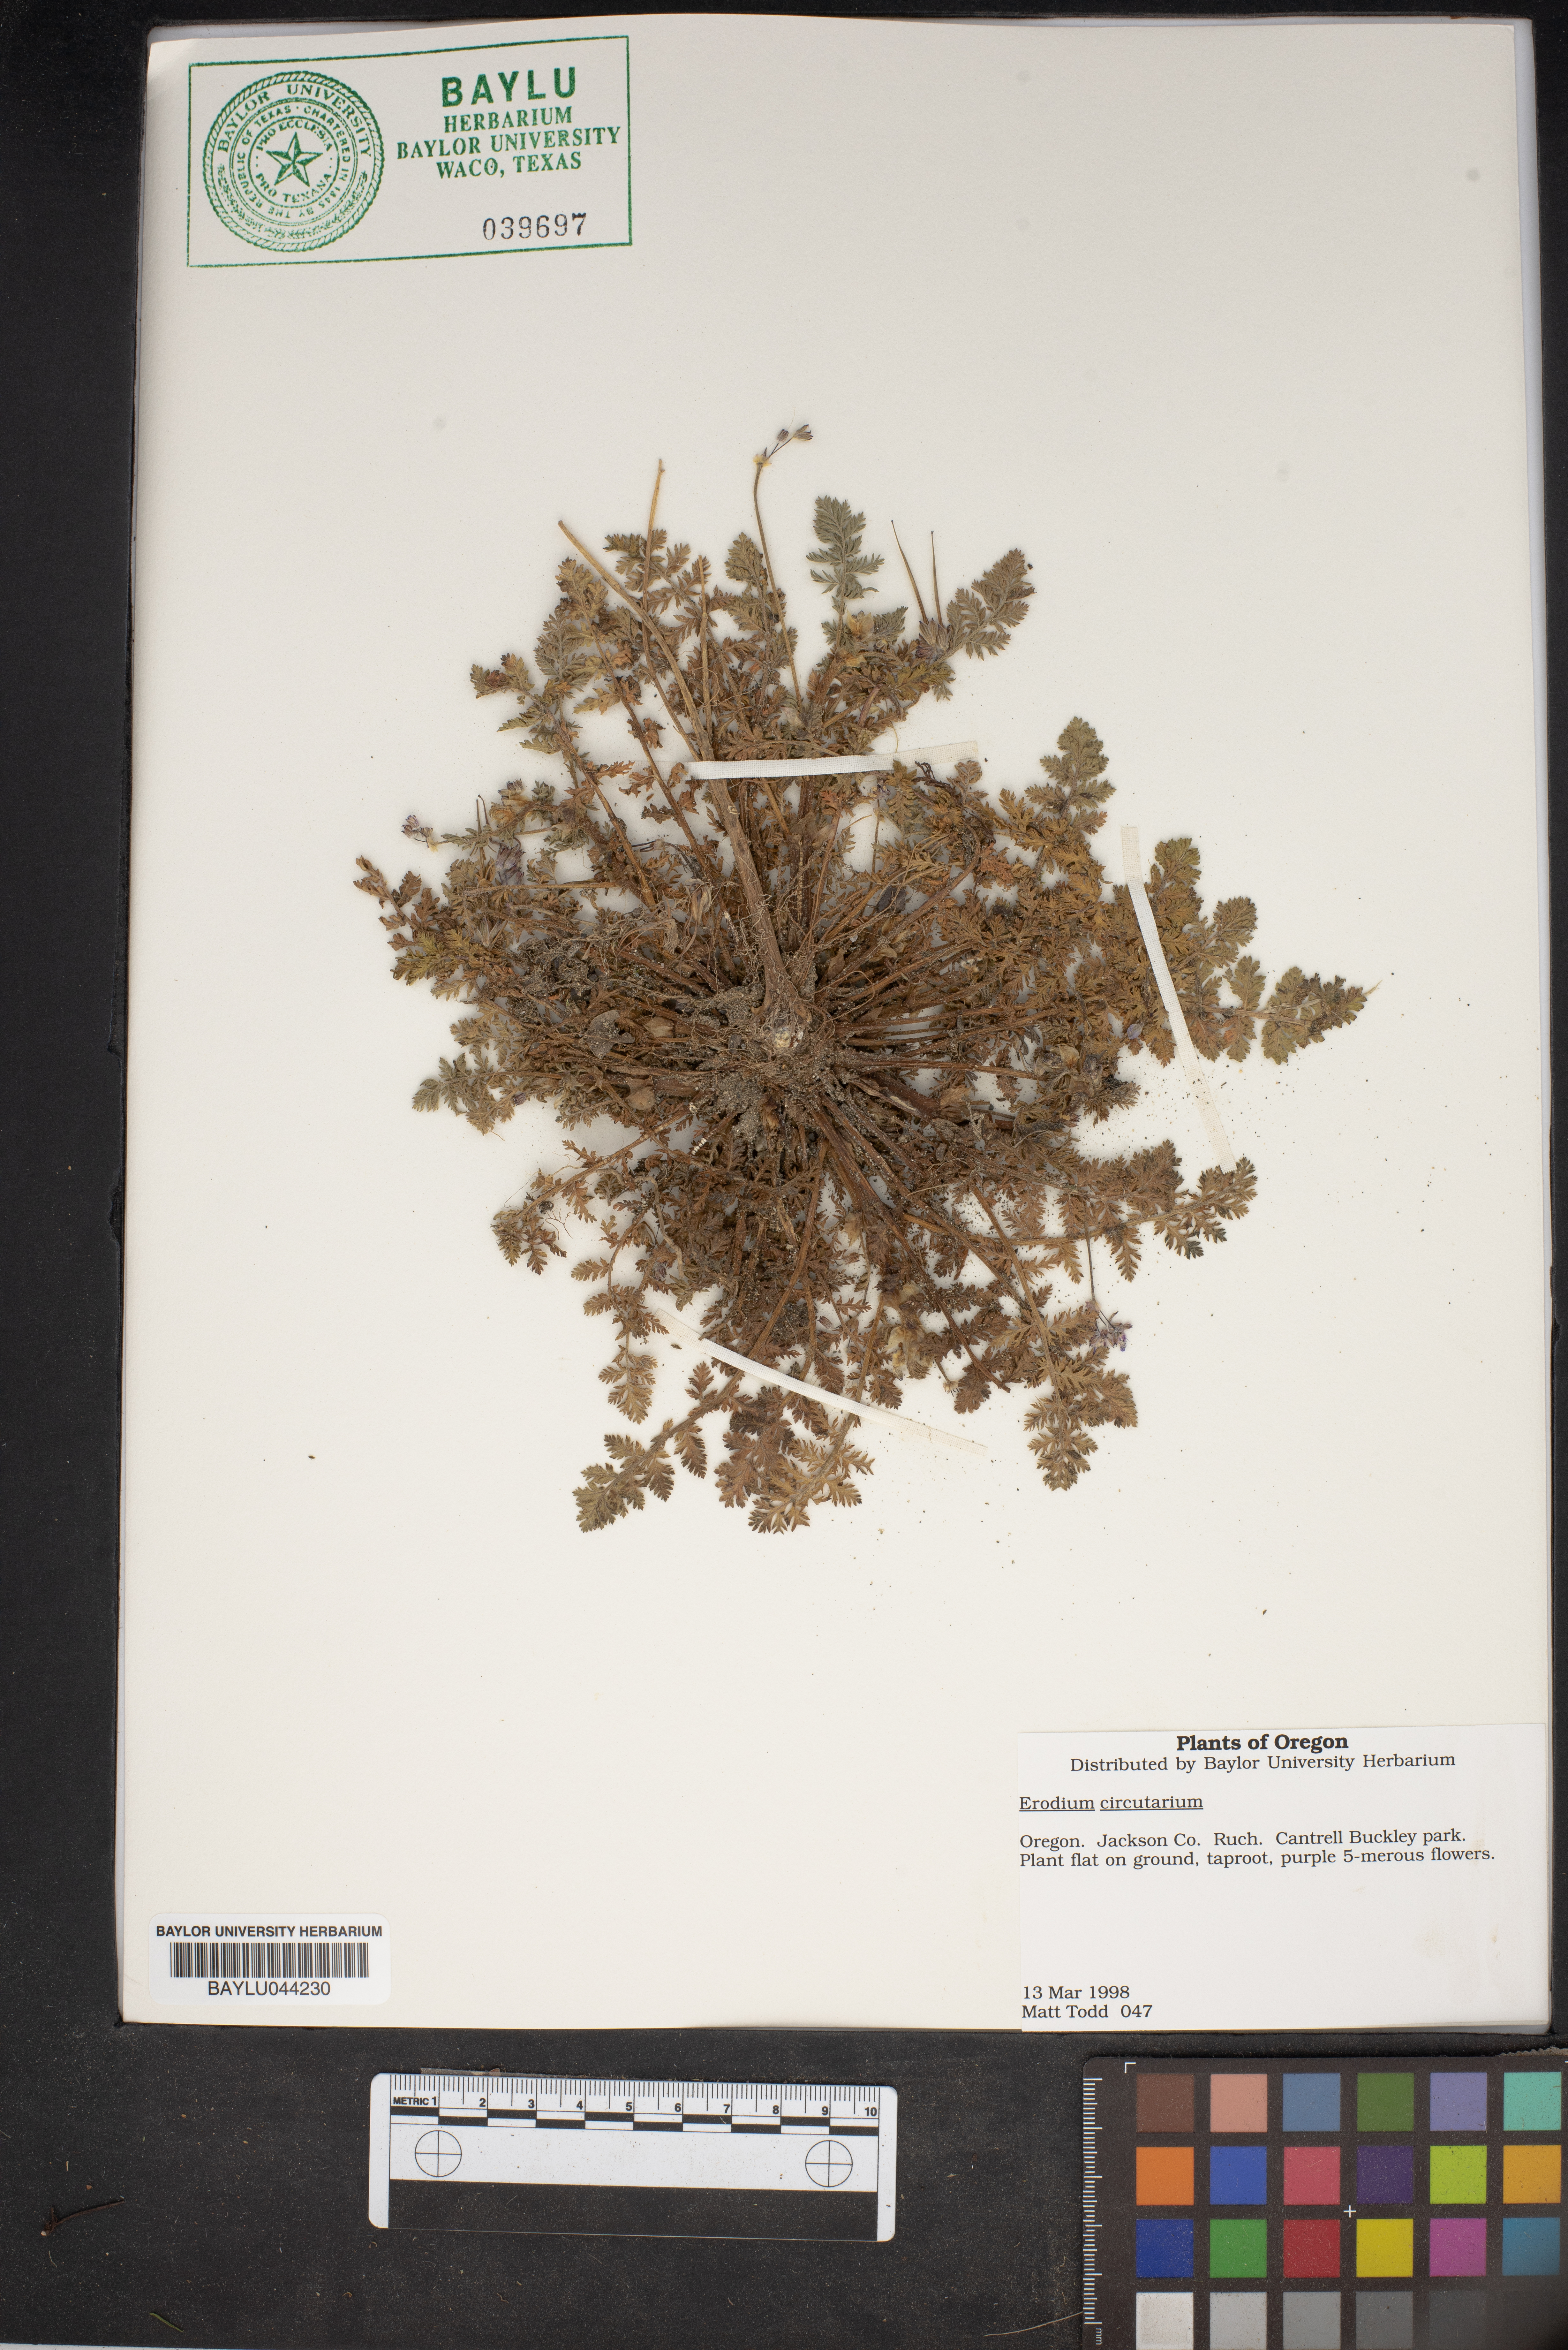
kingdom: Plantae
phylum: Tracheophyta
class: Magnoliopsida
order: Geraniales
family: Geraniaceae
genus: Erodium
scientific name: Erodium cicutarium
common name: Common stork's-bill
